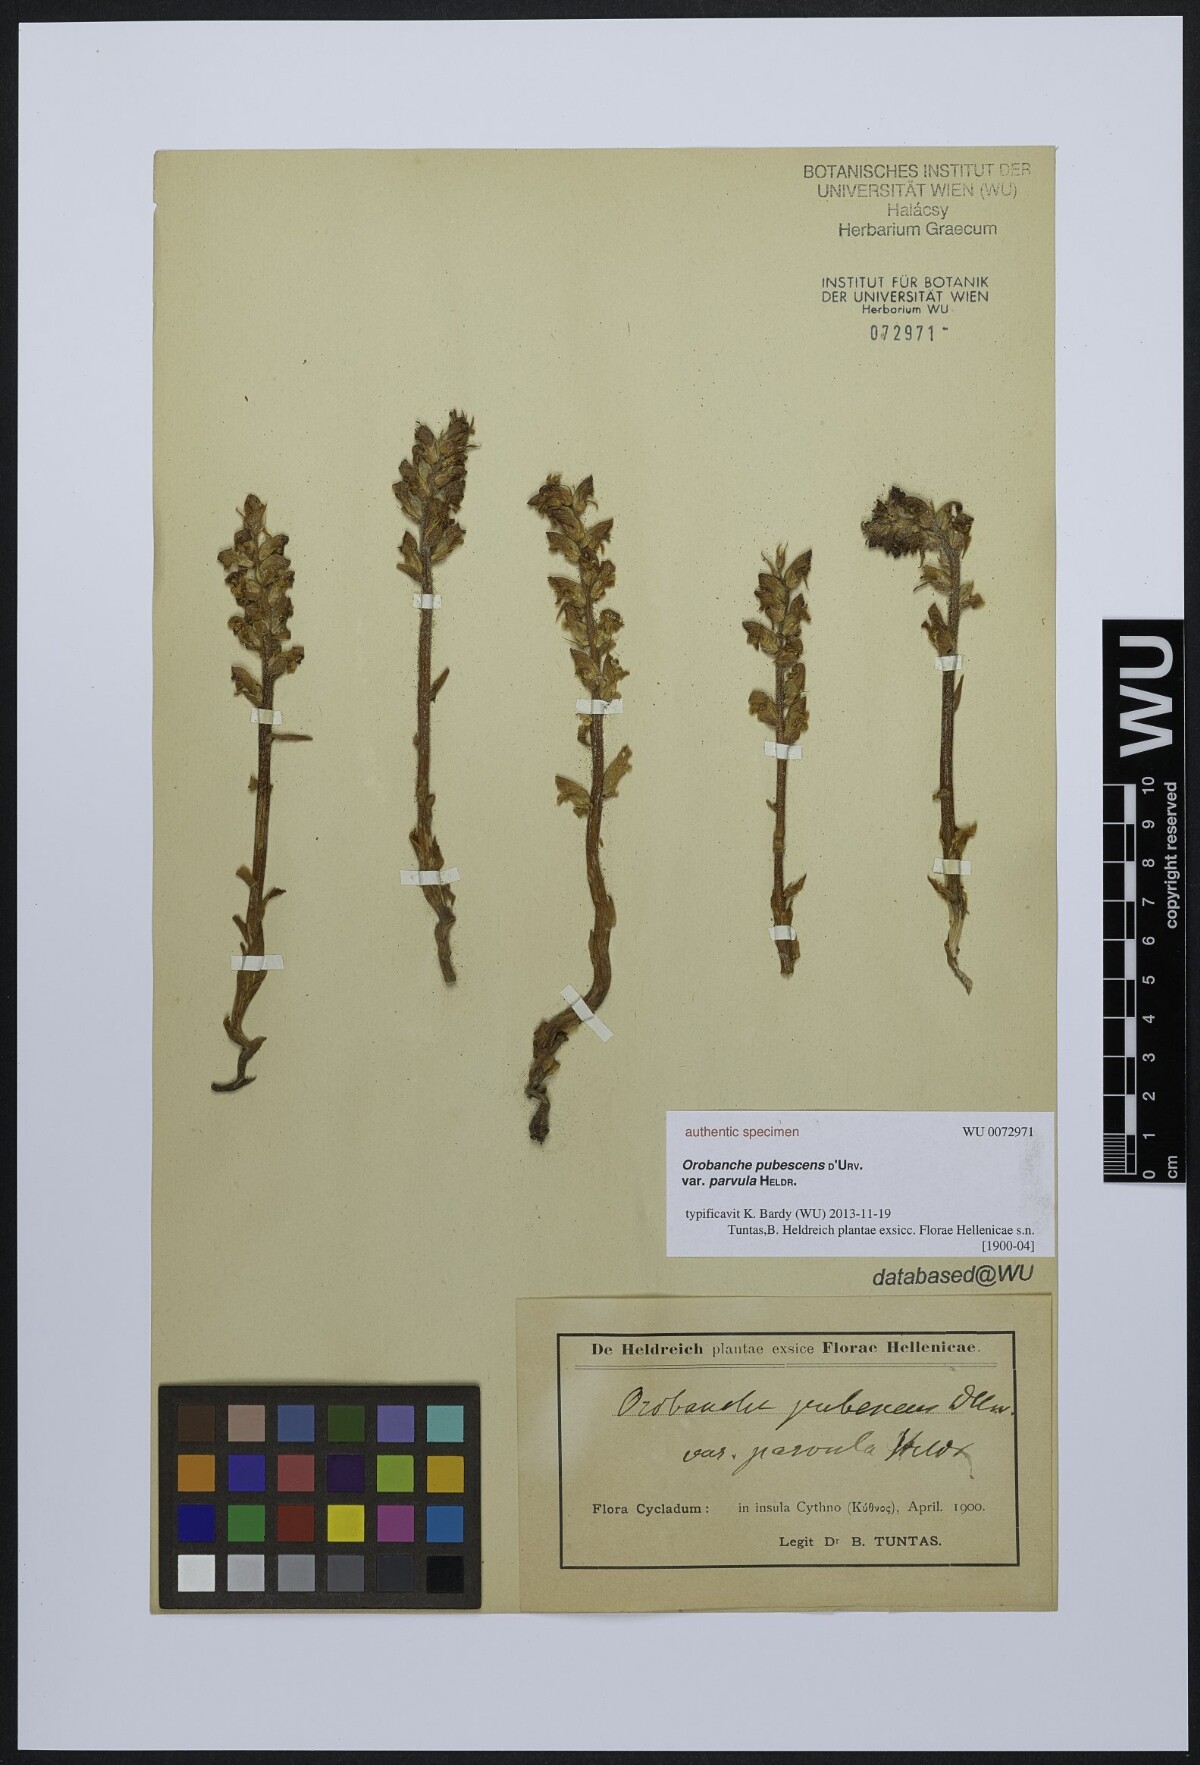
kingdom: Plantae
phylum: Tracheophyta
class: Magnoliopsida
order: Lamiales
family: Orobanchaceae
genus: Orobanche
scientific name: Orobanche pubescens
